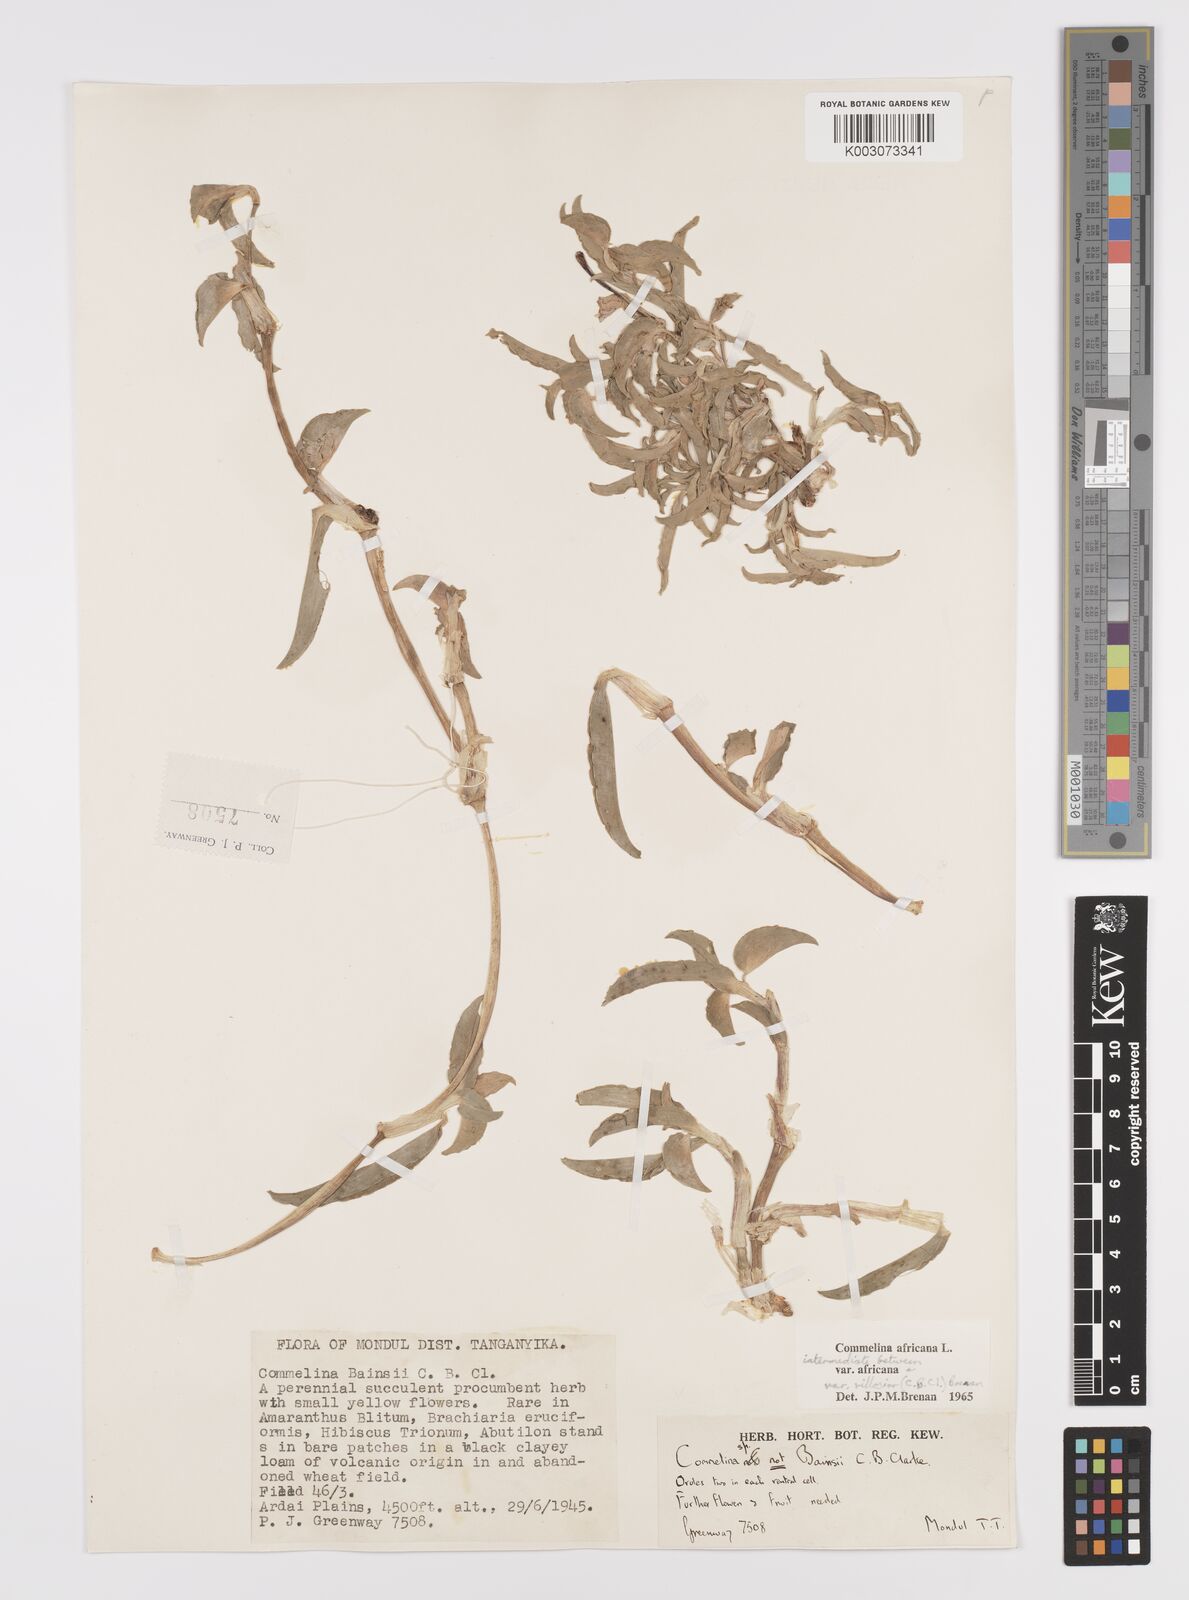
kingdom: Plantae
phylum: Tracheophyta
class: Liliopsida
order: Commelinales
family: Commelinaceae
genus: Commelina
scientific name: Commelina africana
